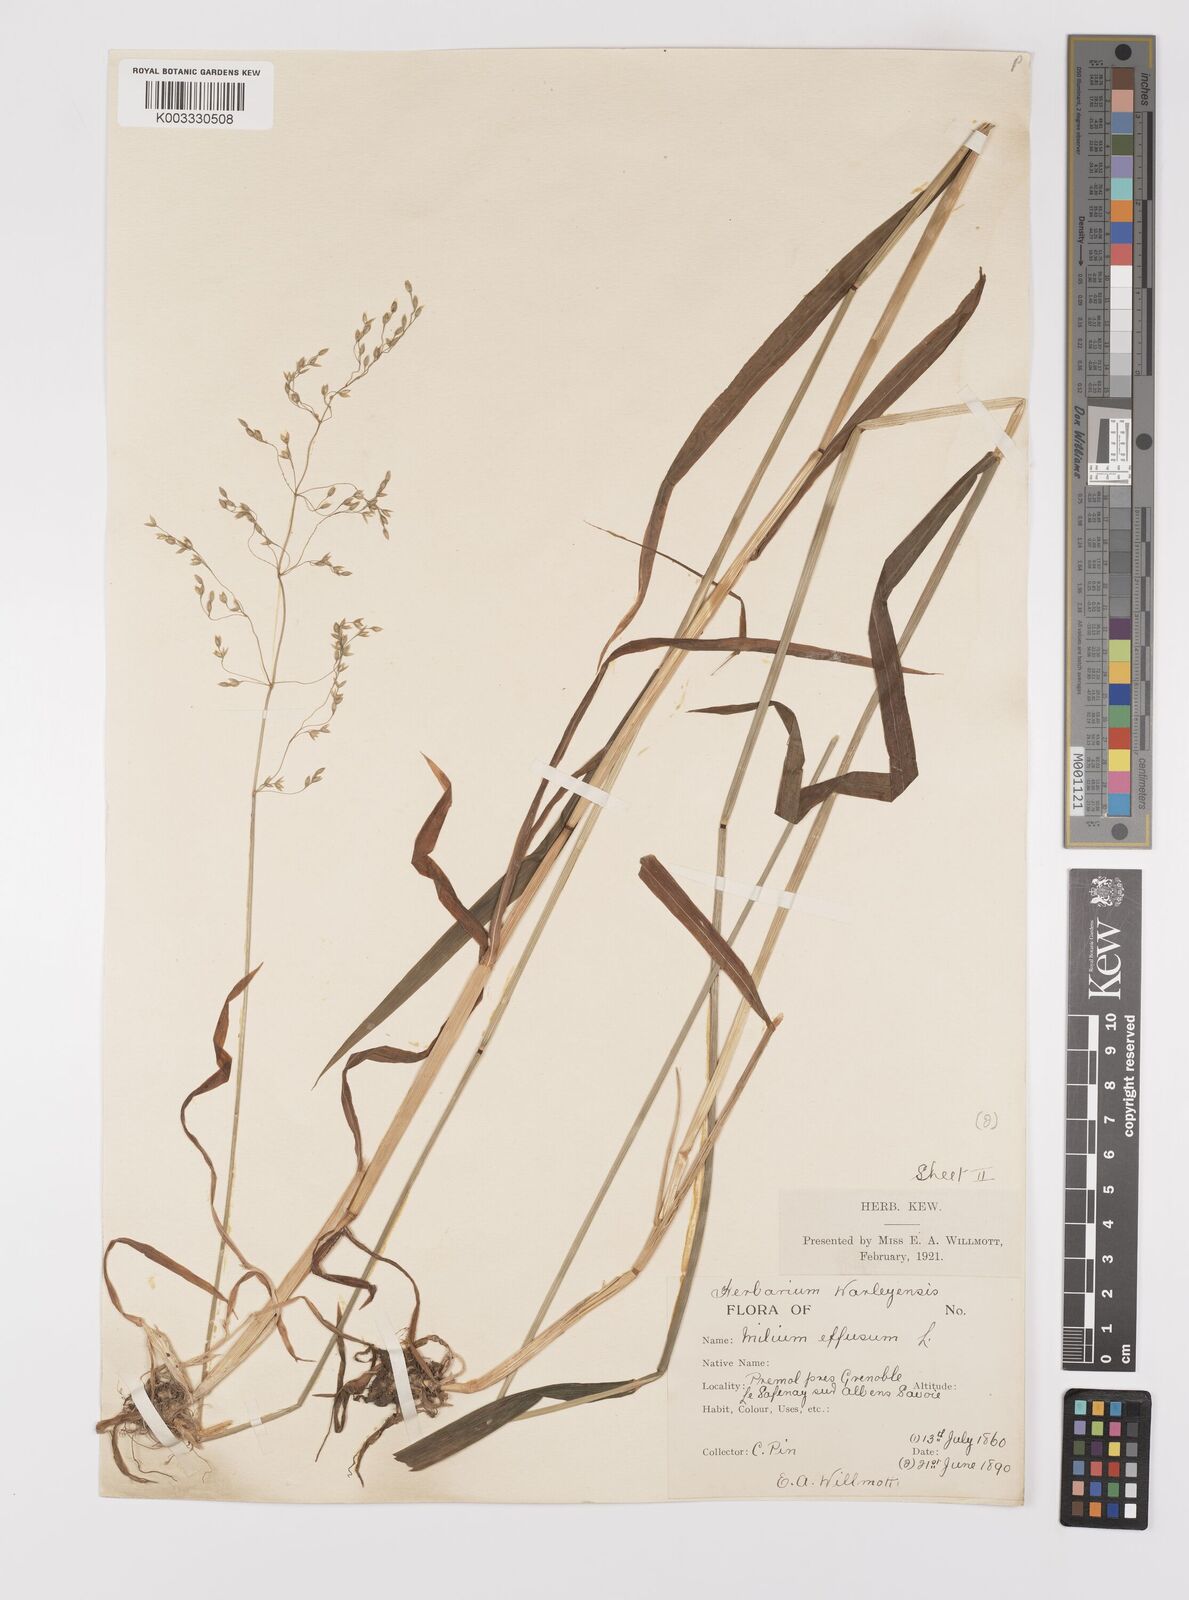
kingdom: Plantae
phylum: Tracheophyta
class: Liliopsida
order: Poales
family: Poaceae
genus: Milium
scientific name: Milium
